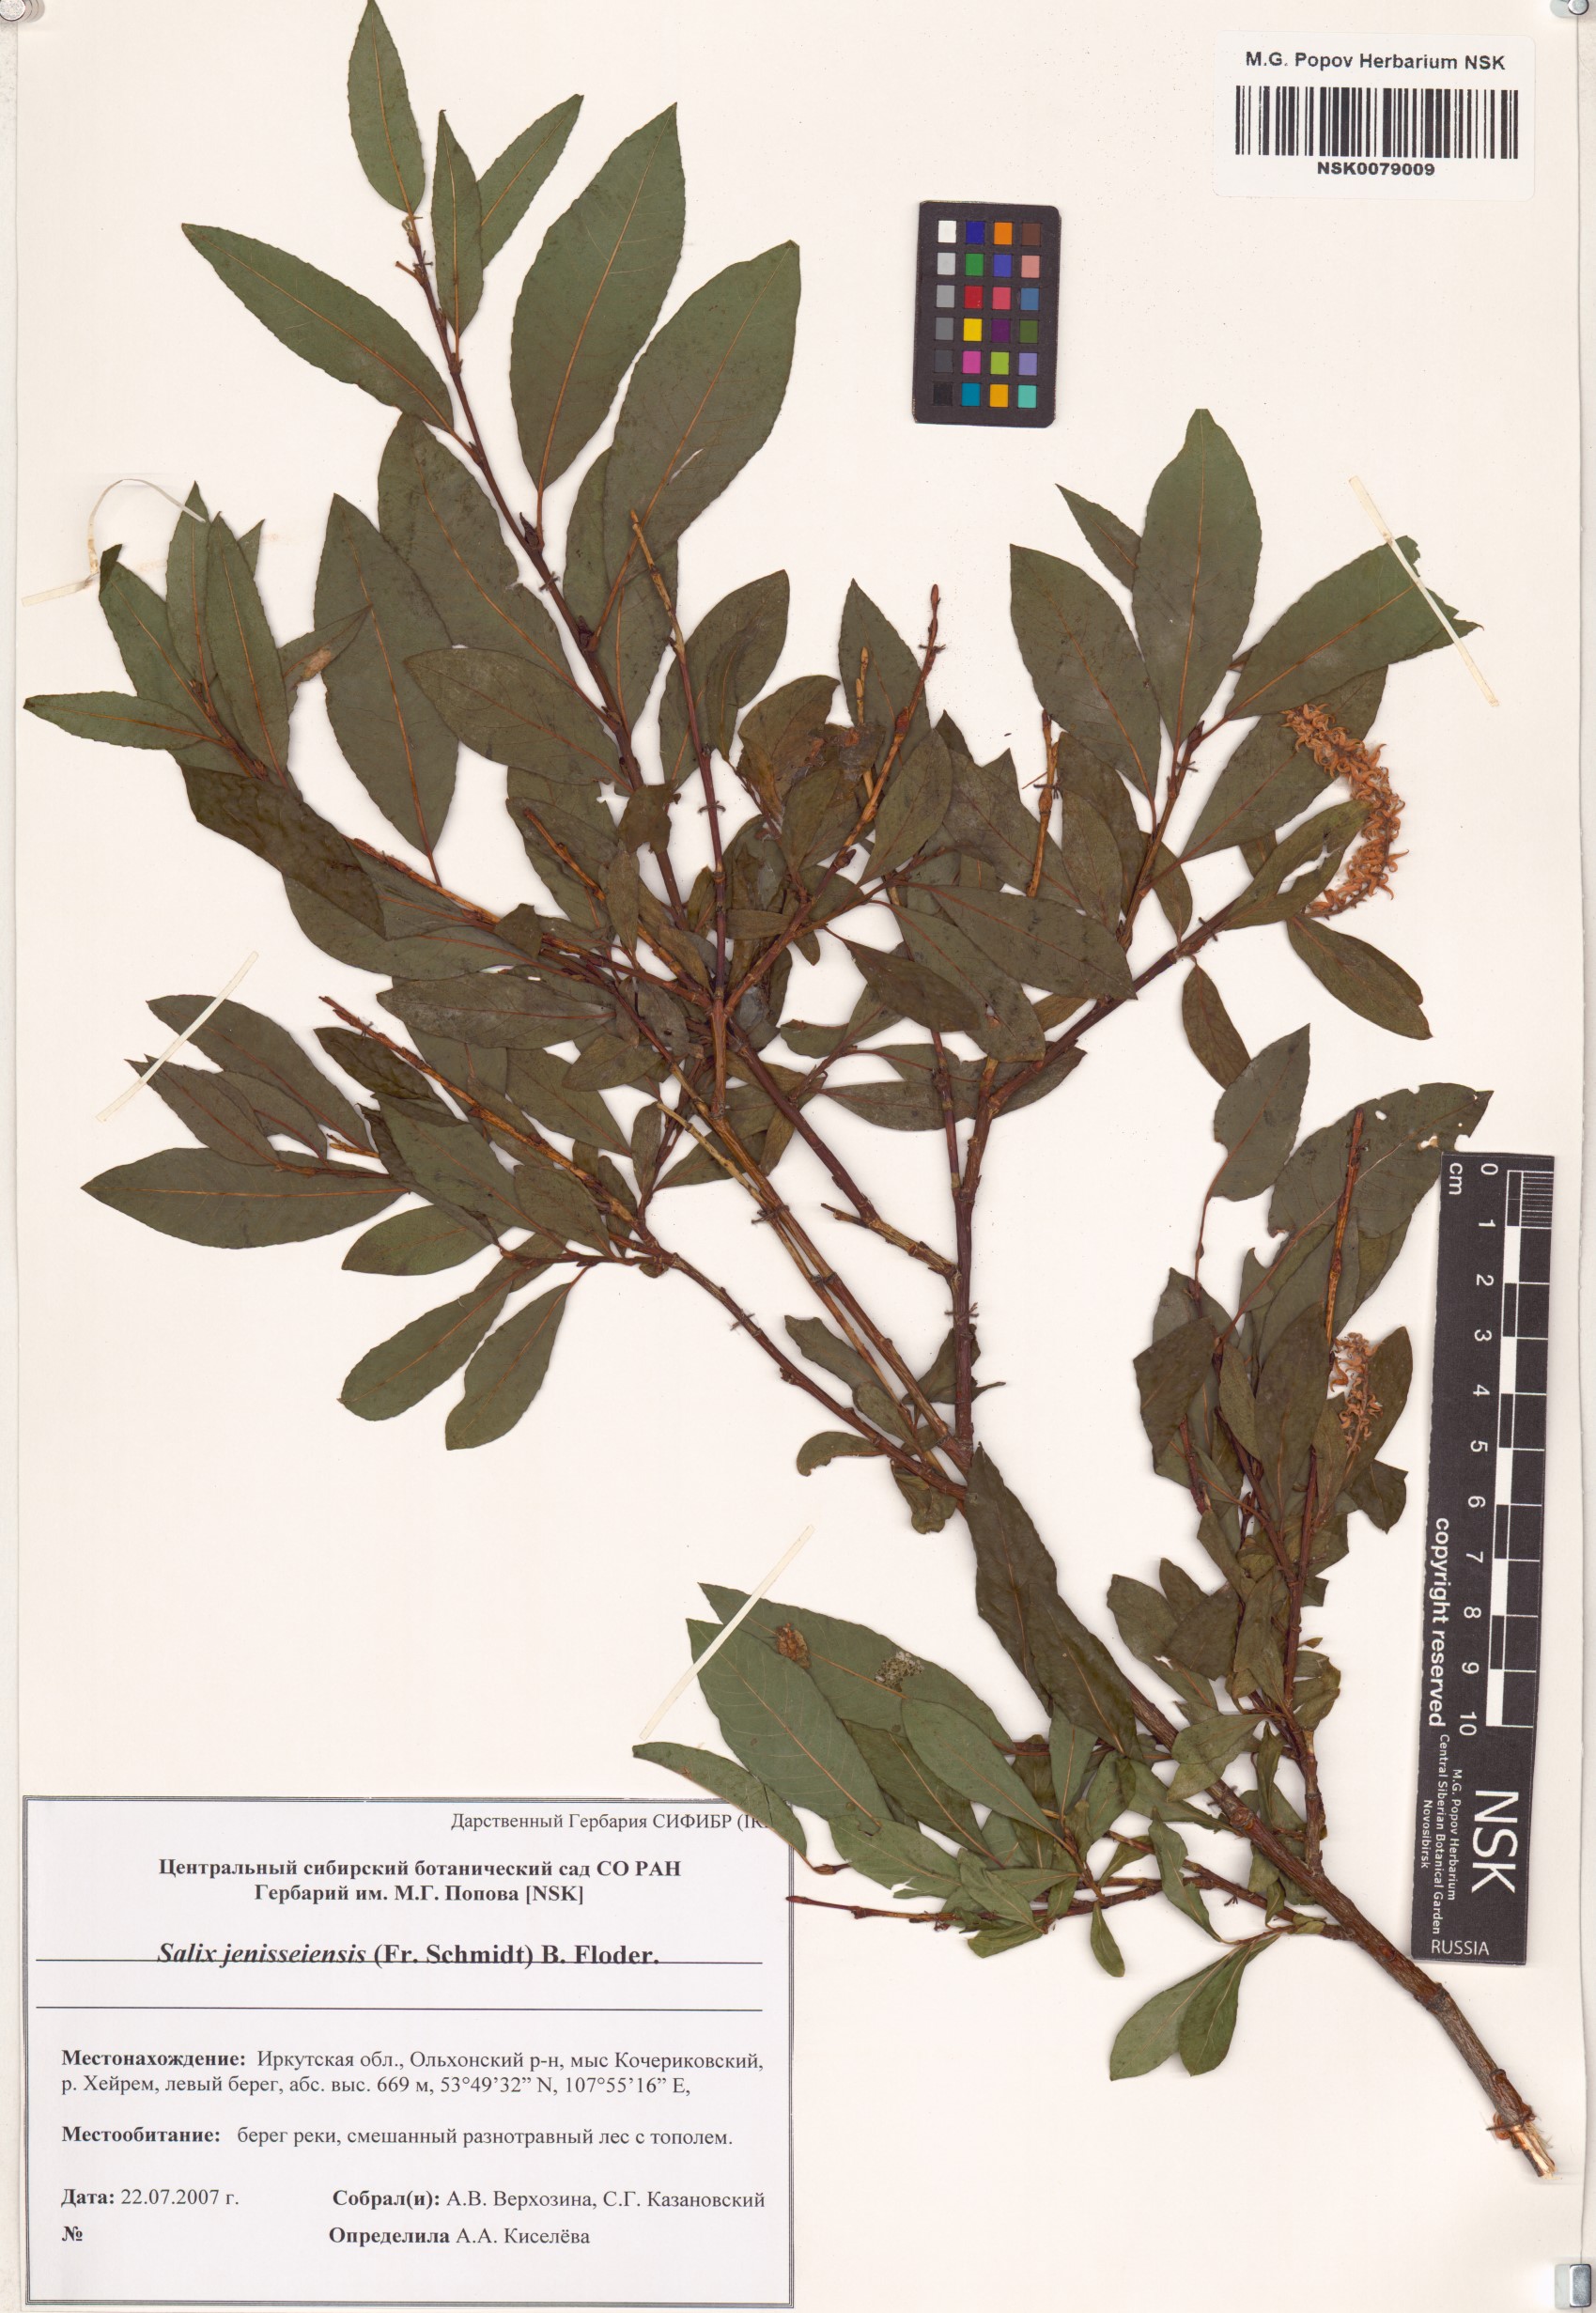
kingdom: Plantae
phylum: Tracheophyta
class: Magnoliopsida
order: Malpighiales
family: Salicaceae
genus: Salix
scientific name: Salix jenisseensis
